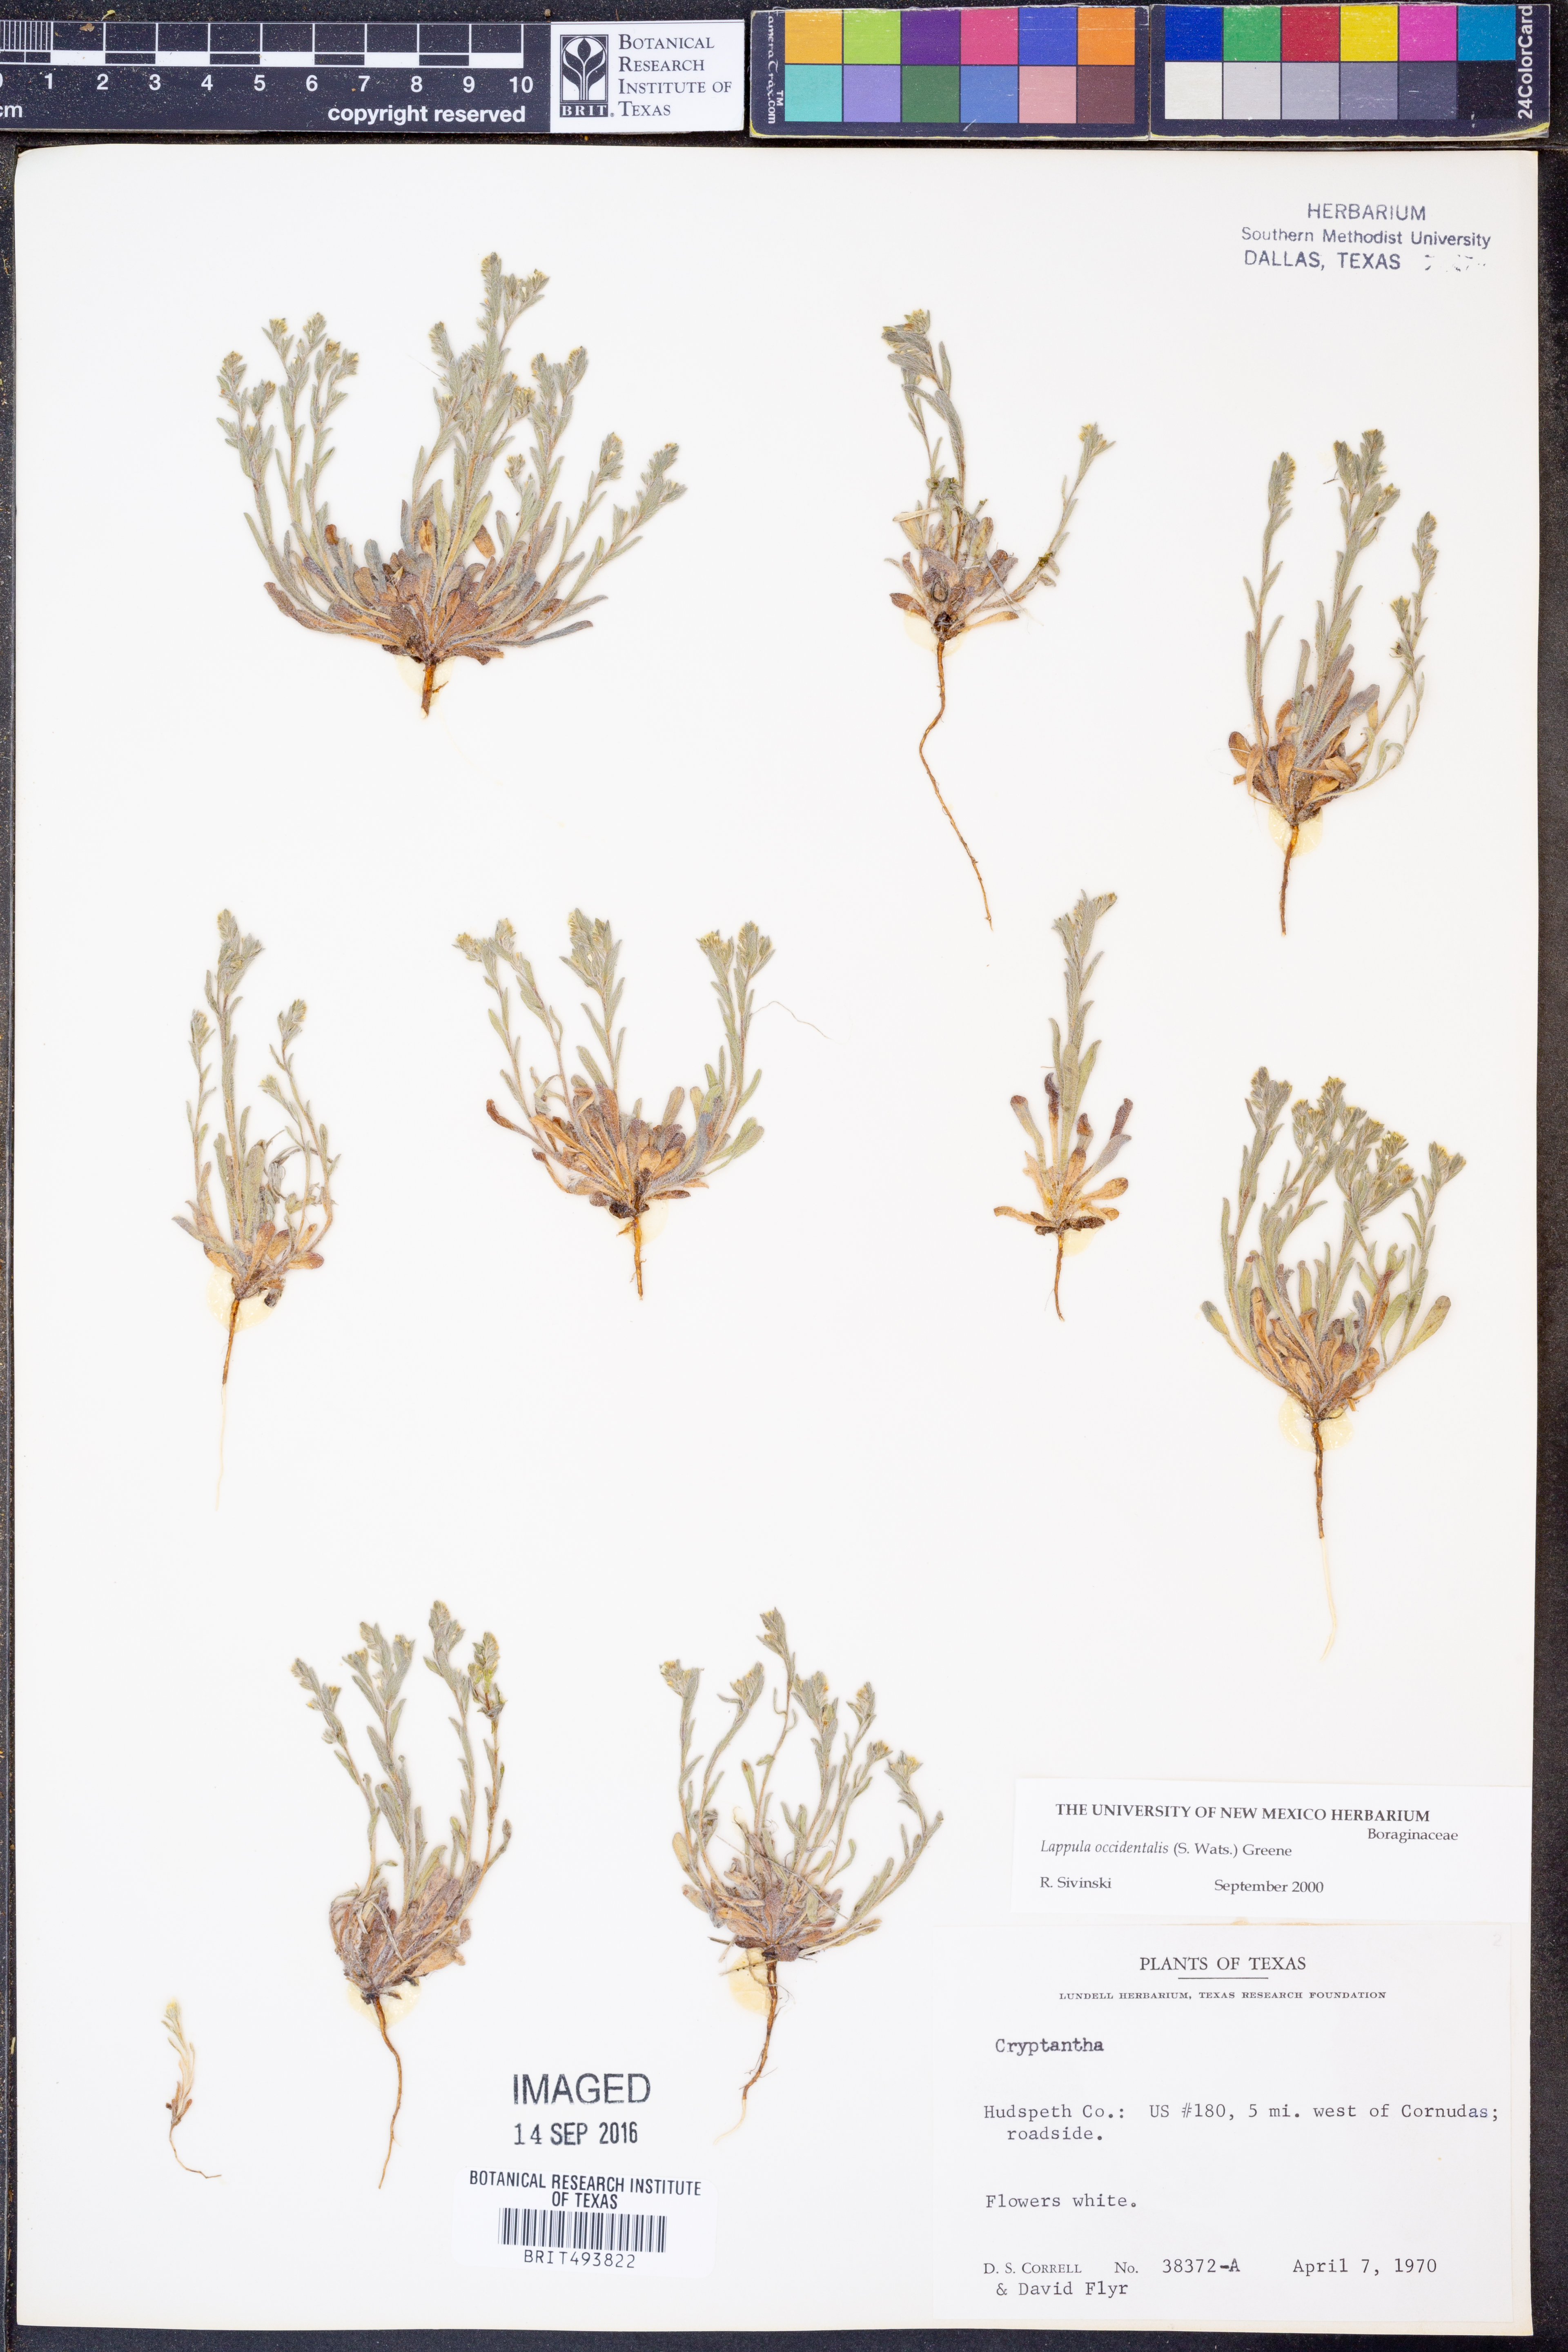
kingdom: Plantae
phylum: Tracheophyta
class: Magnoliopsida
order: Boraginales
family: Boraginaceae
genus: Lappula
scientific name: Lappula occidentalis
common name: Western stickseed
